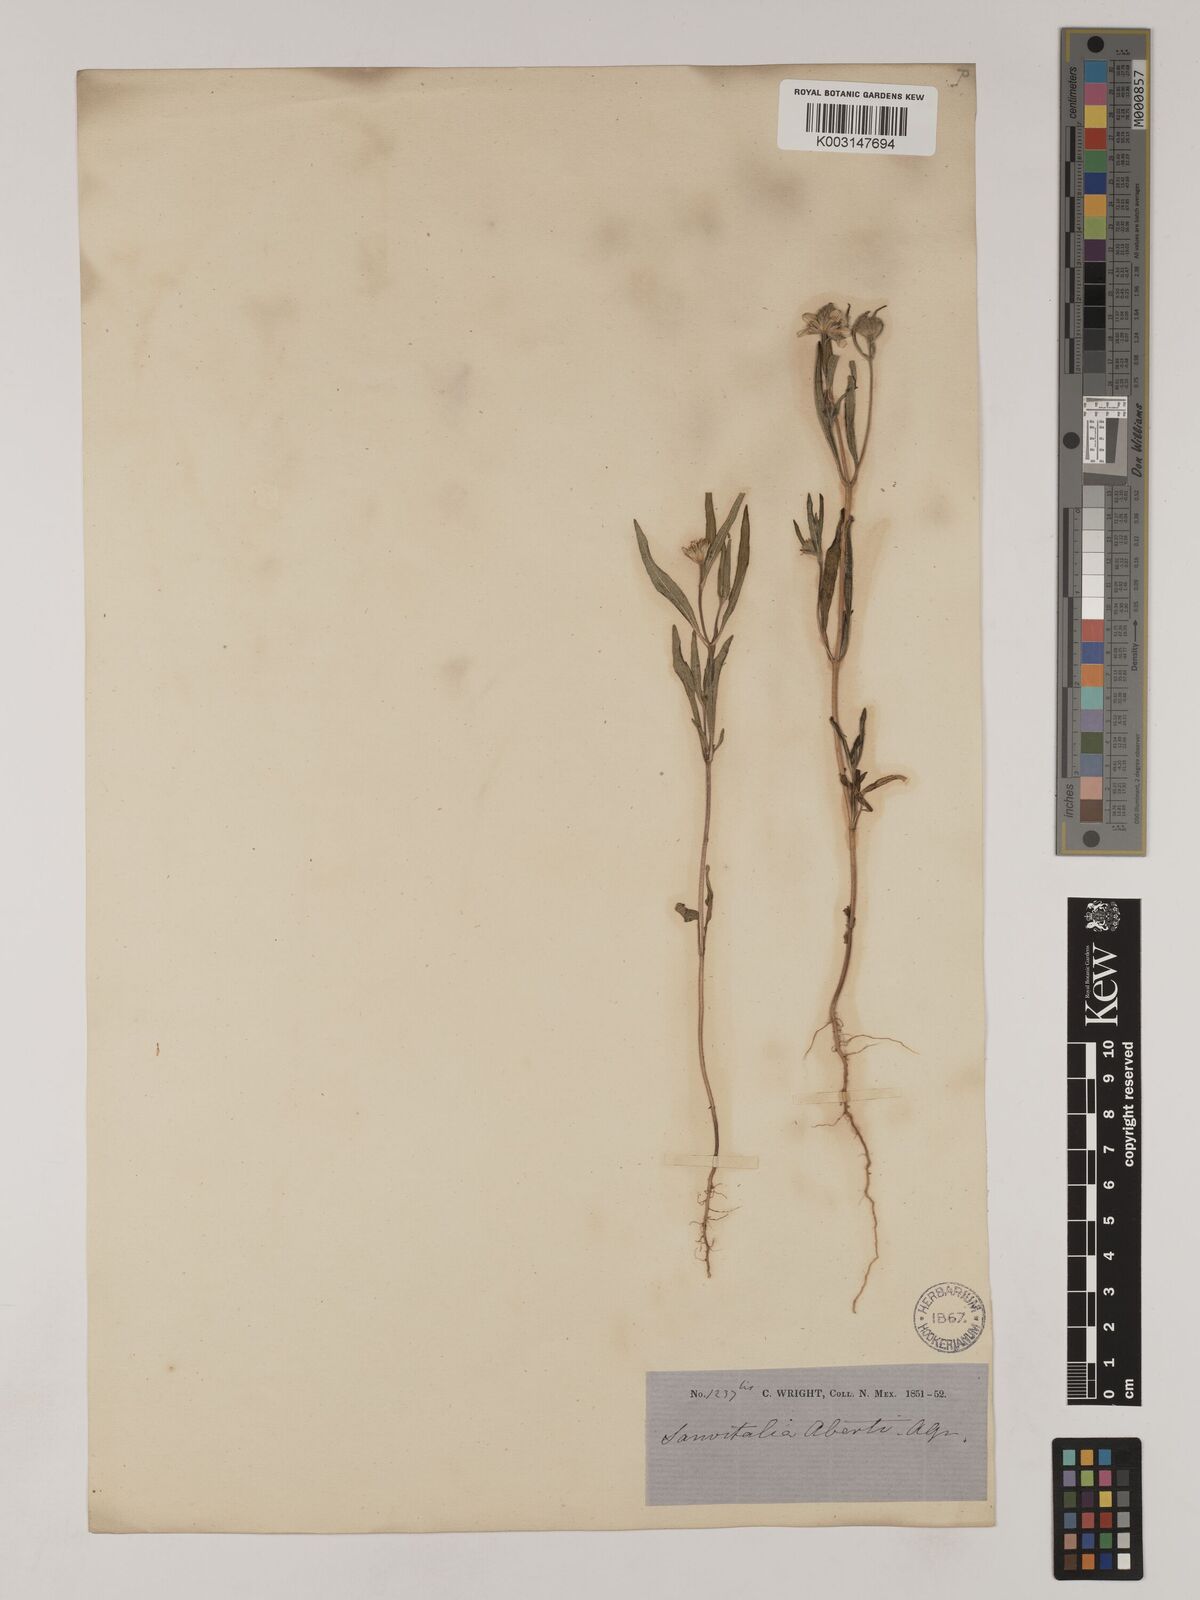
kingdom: Plantae
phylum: Tracheophyta
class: Magnoliopsida
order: Asterales
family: Asteraceae
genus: Sanvitalia
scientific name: Sanvitalia abertii
